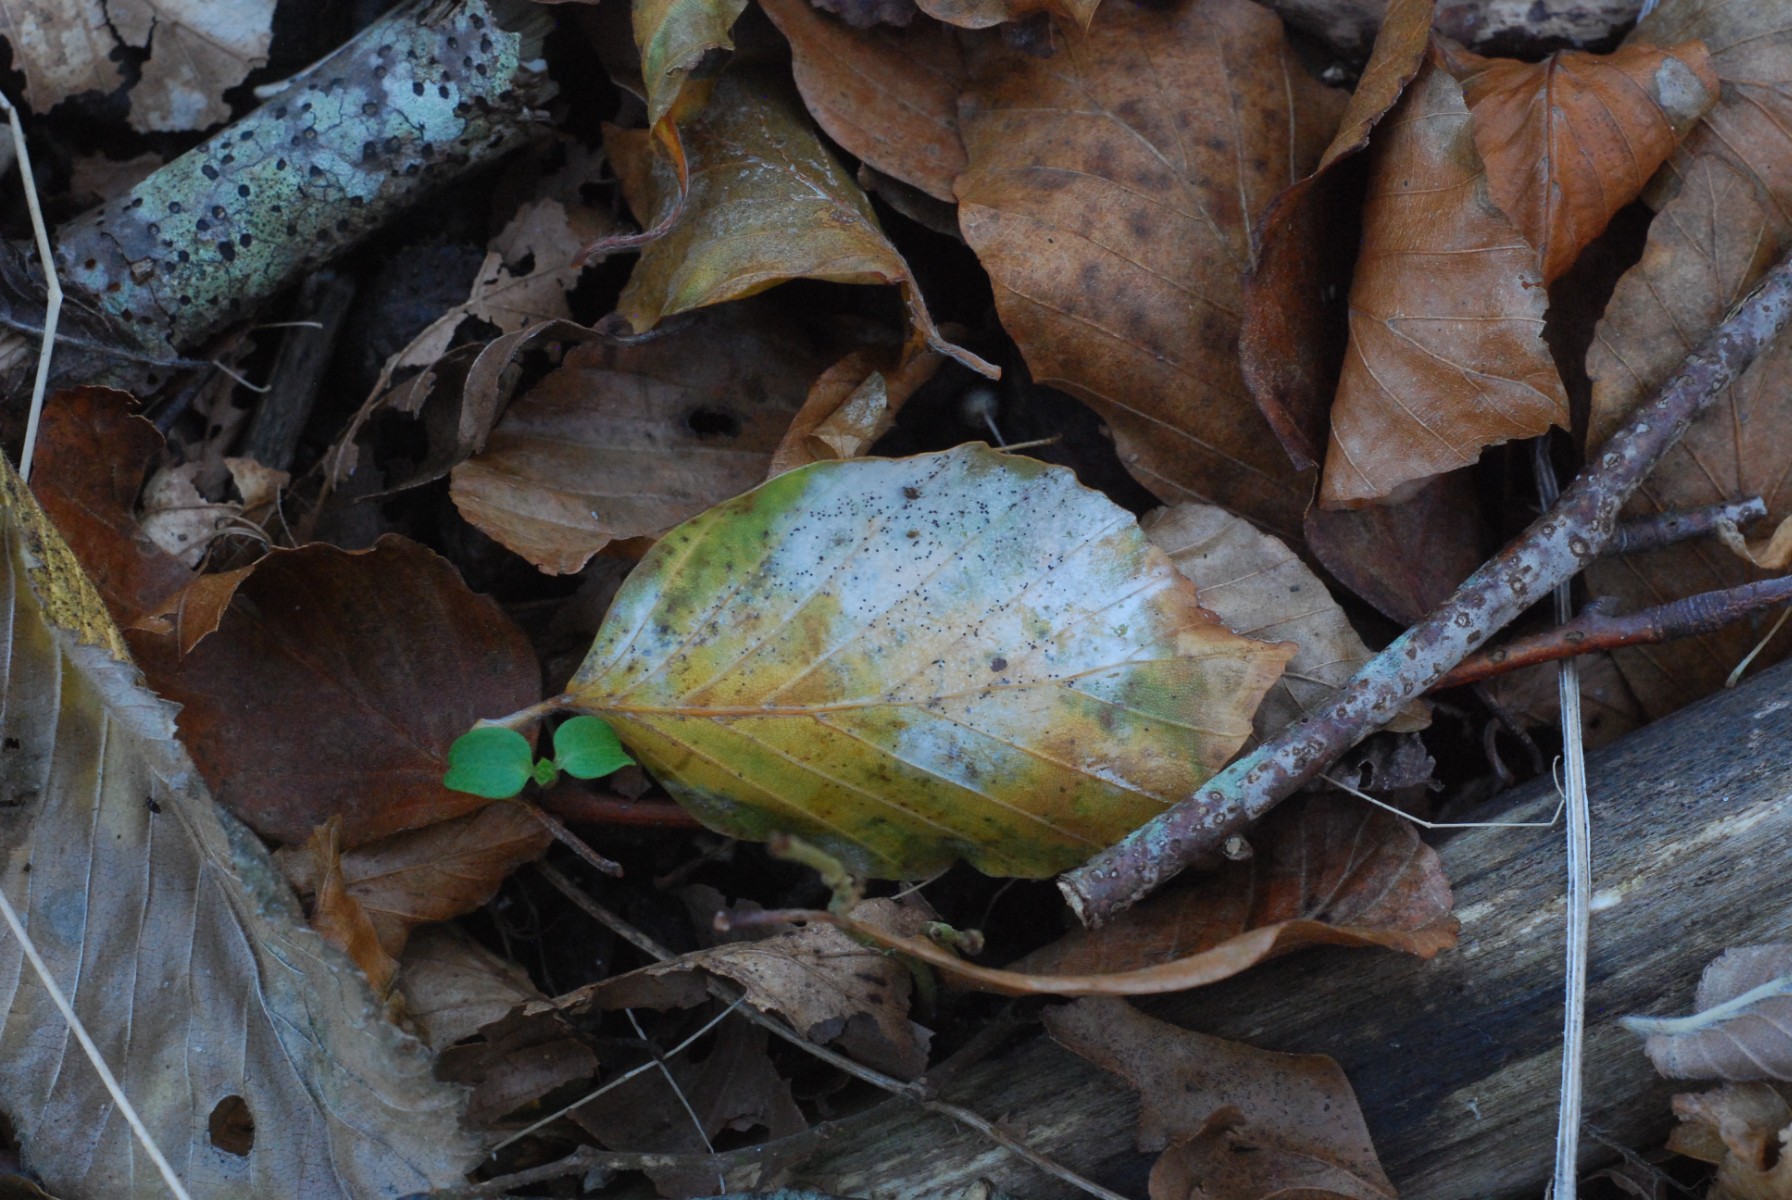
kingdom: Fungi
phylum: Ascomycota
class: Leotiomycetes
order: Helotiales
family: Erysiphaceae
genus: Phyllactinia
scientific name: Phyllactinia orbicularis
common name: bøge-meldug
